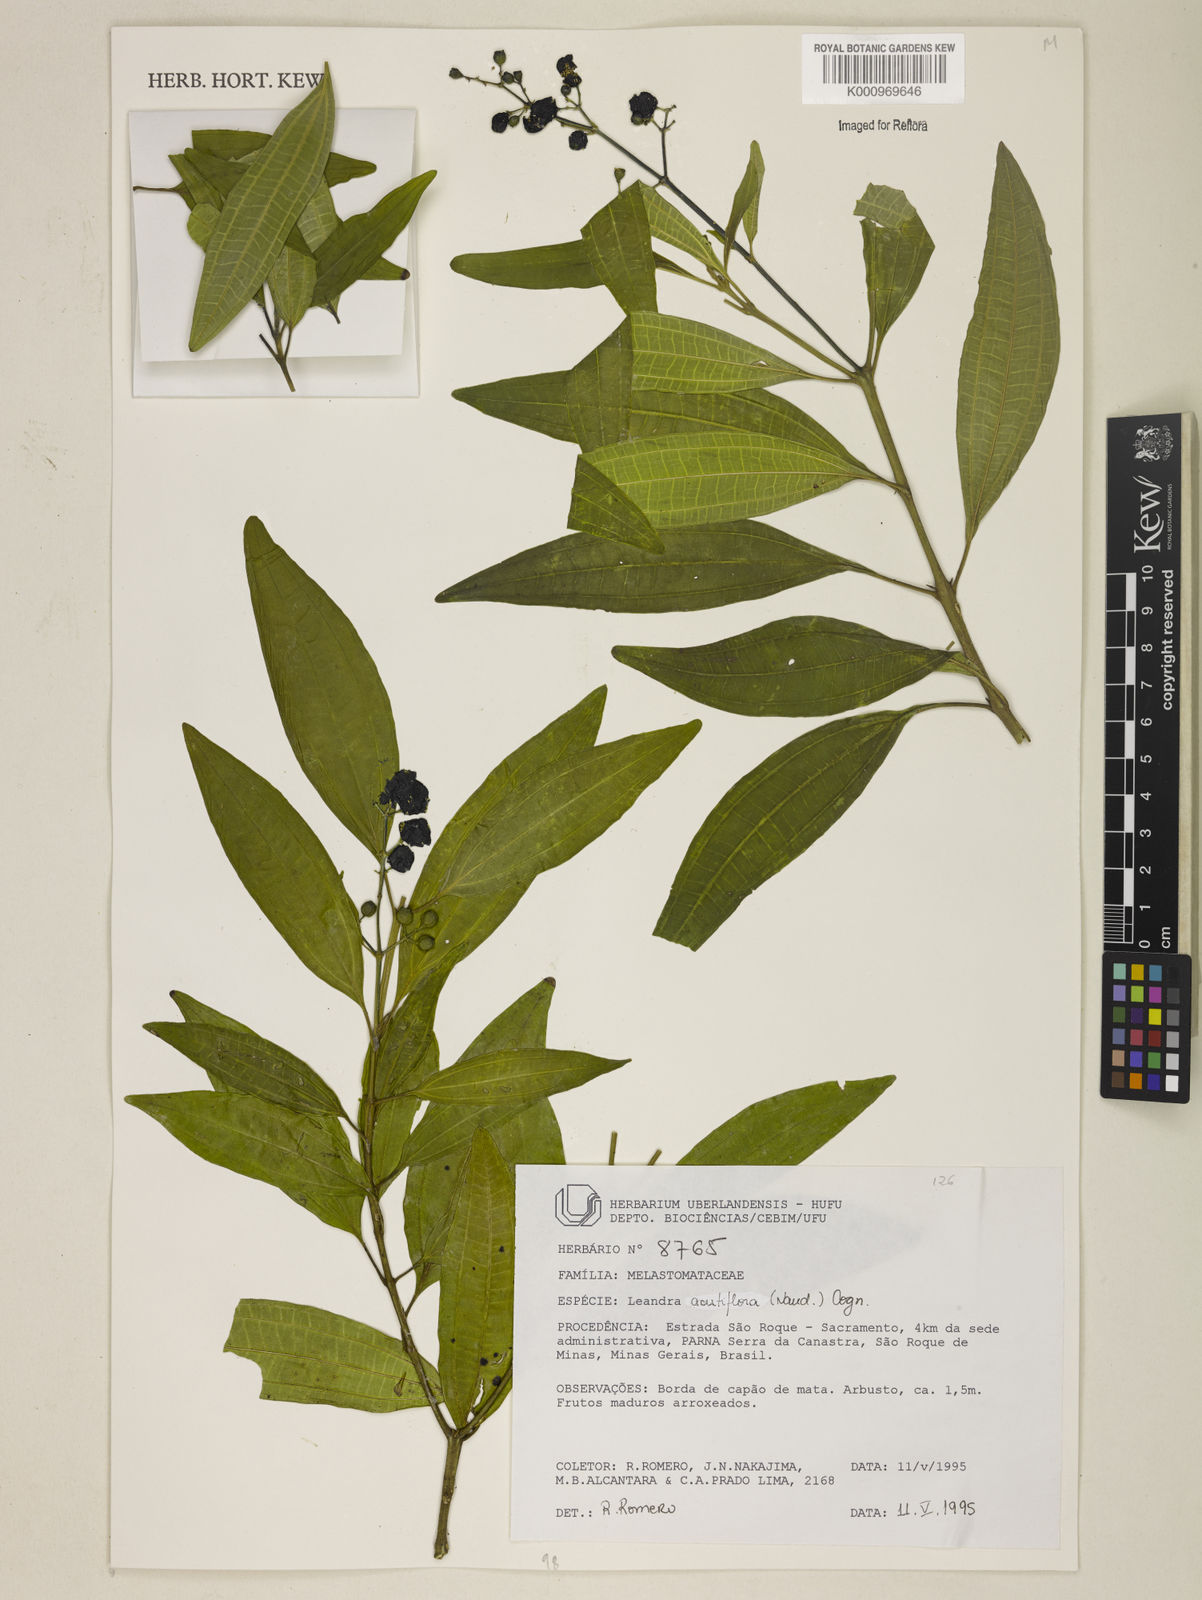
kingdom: Plantae
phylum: Tracheophyta
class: Magnoliopsida
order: Myrtales
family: Melastomataceae
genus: Miconia
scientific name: Miconia acutiflora
